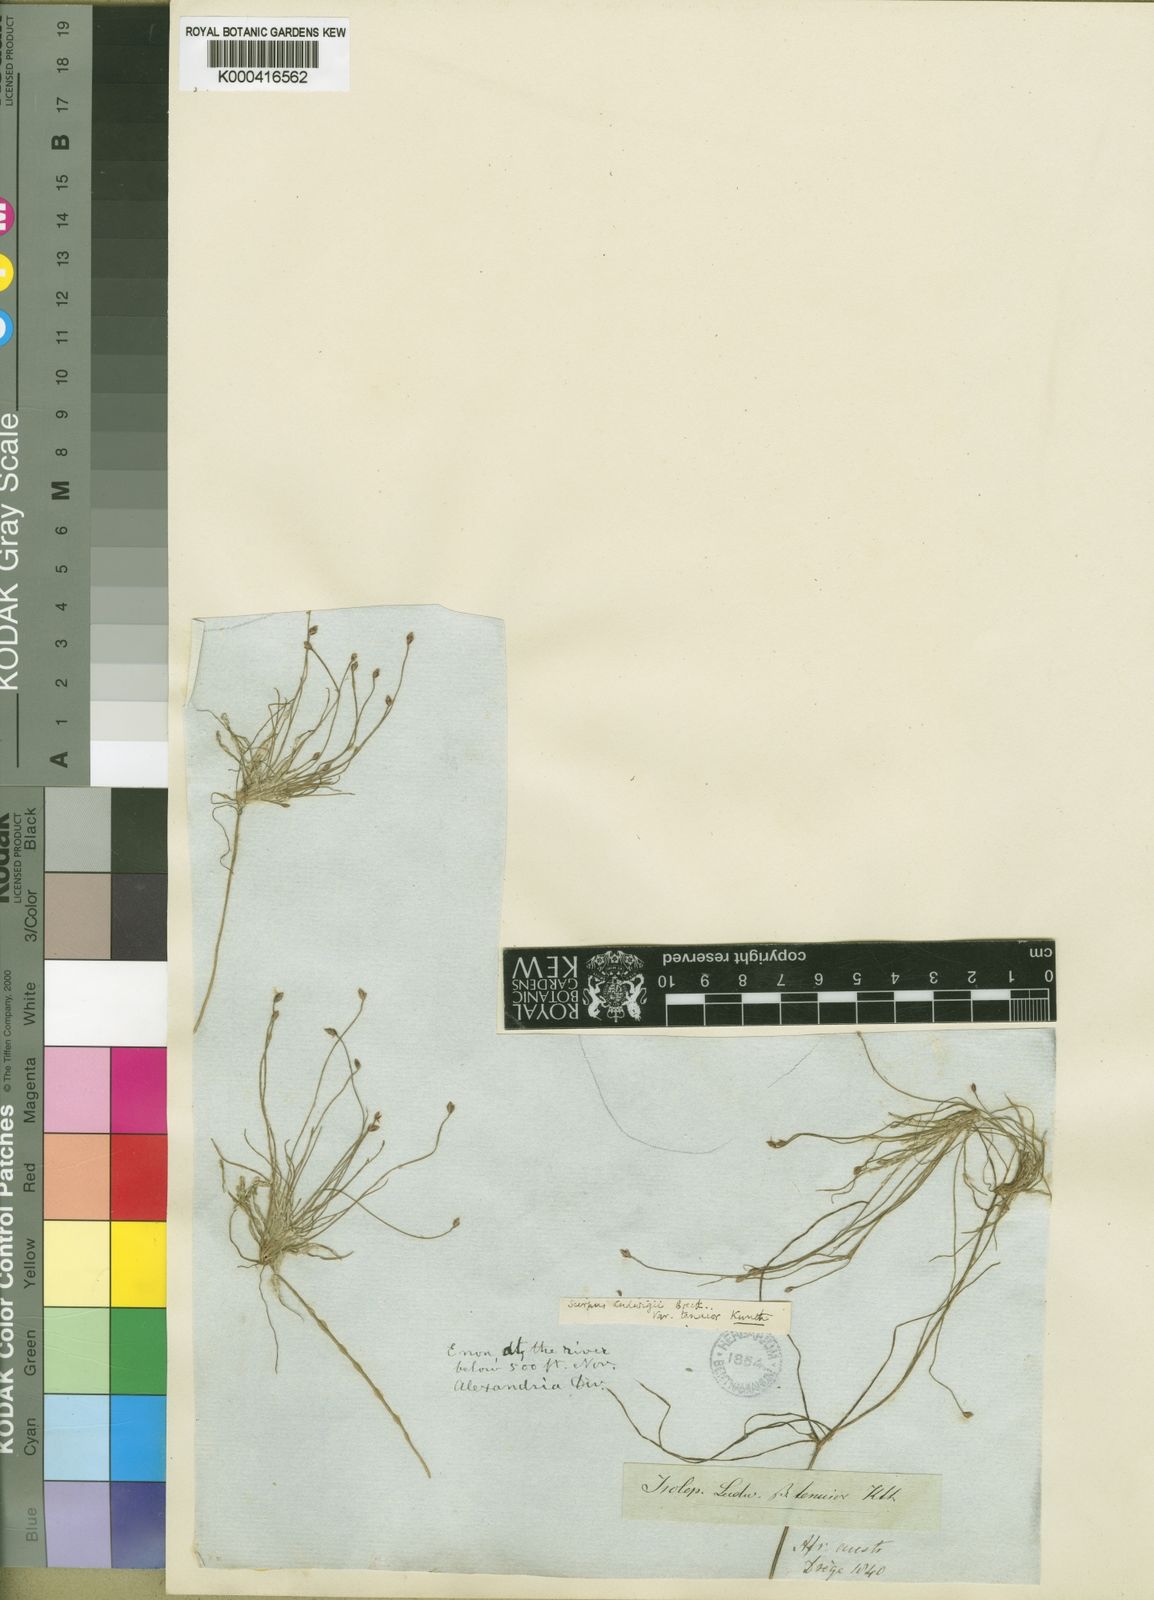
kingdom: Plantae
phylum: Tracheophyta
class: Liliopsida
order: Poales
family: Cyperaceae
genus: Isolepis
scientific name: Isolepis ludwigii
